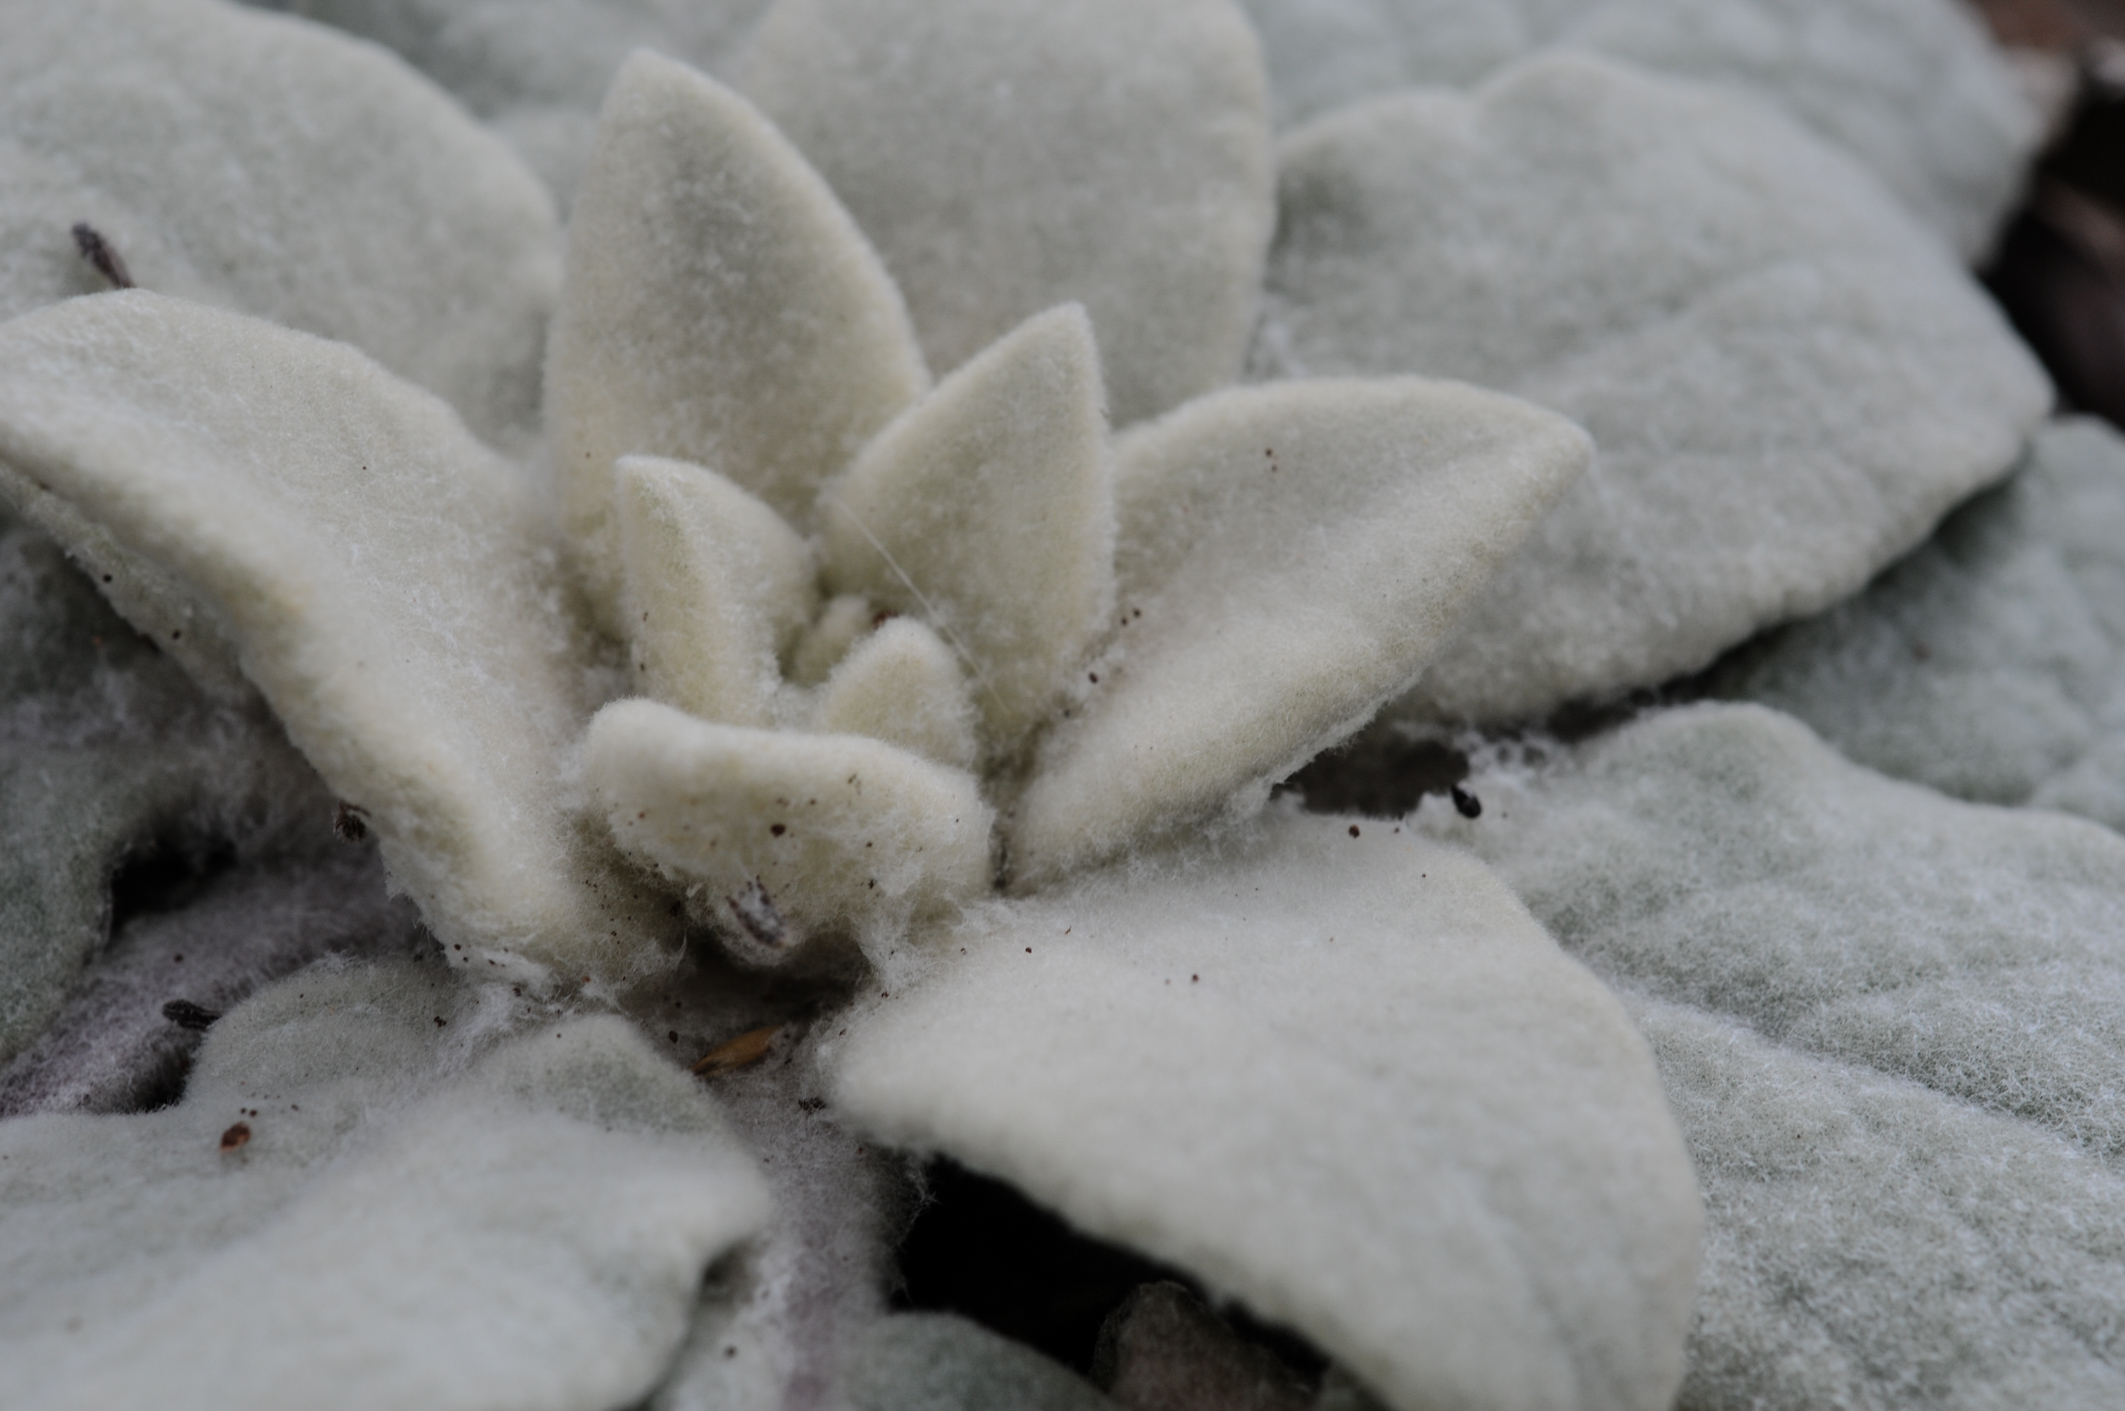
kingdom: Plantae
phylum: Tracheophyta
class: Magnoliopsida
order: Lamiales
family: Scrophulariaceae
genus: Verbascum
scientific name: Verbascum reiseri
